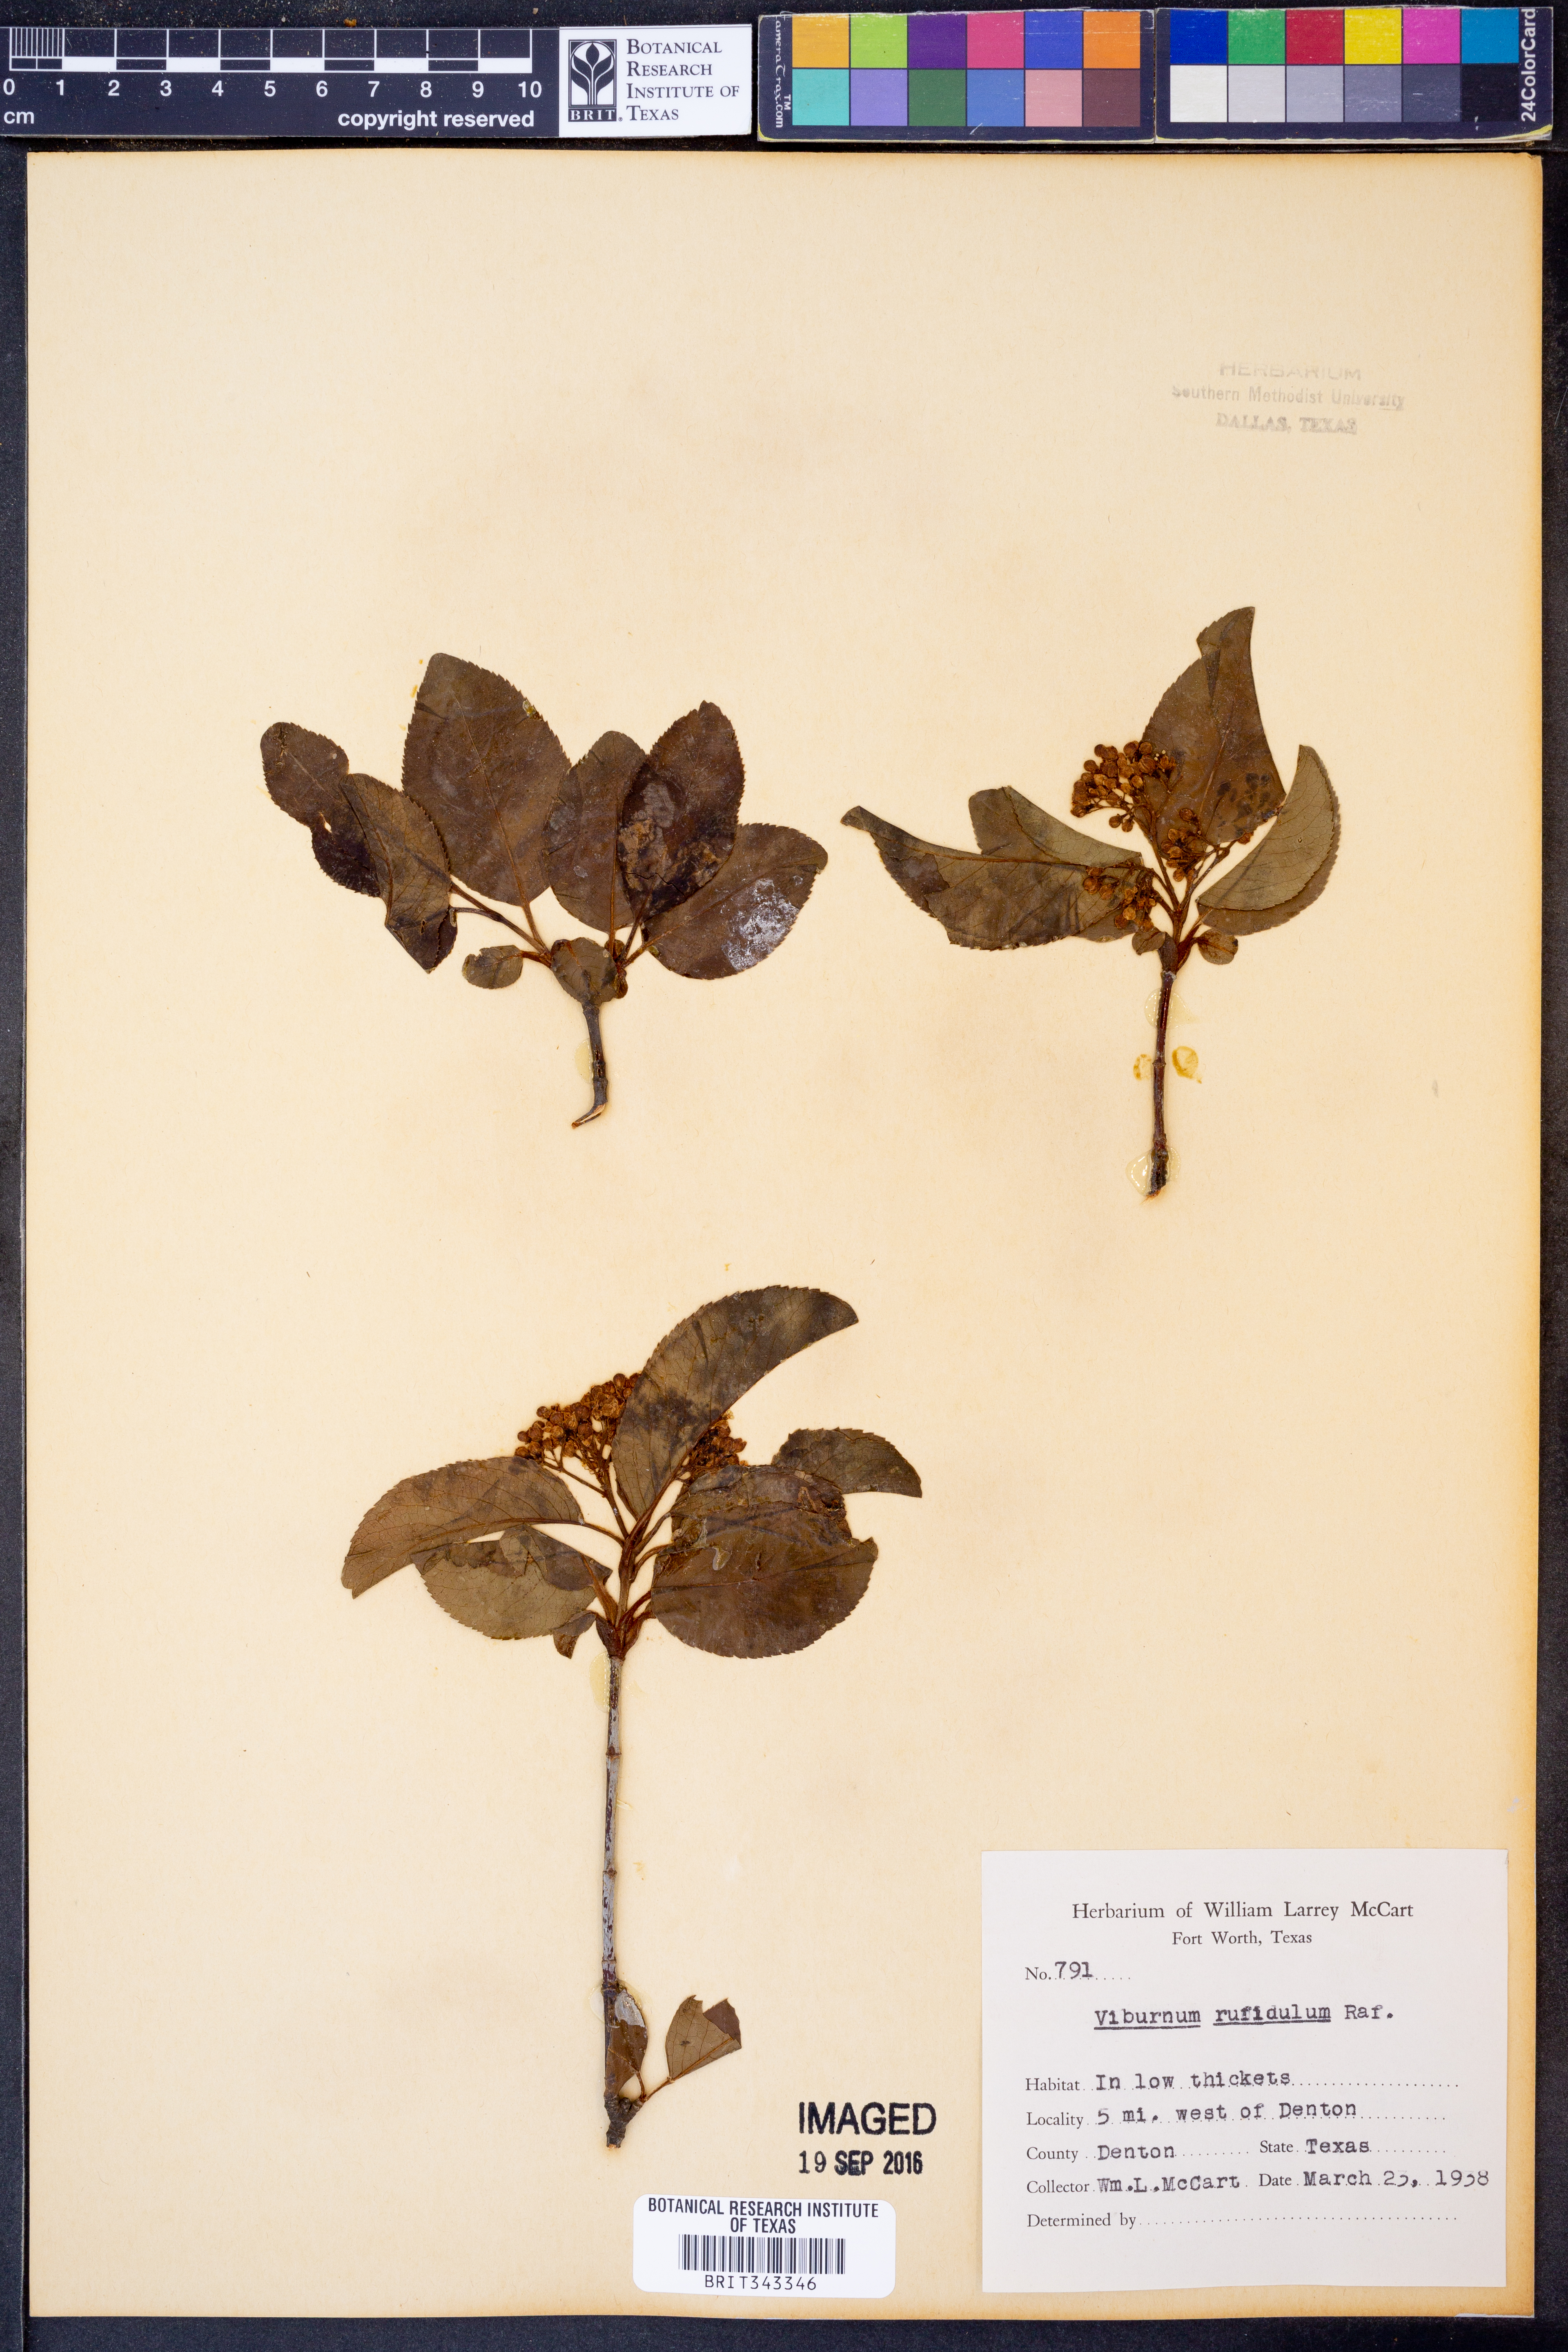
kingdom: Plantae
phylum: Tracheophyta
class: Magnoliopsida
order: Dipsacales
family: Viburnaceae
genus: Viburnum
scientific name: Viburnum rufidulum
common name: Blue haw
